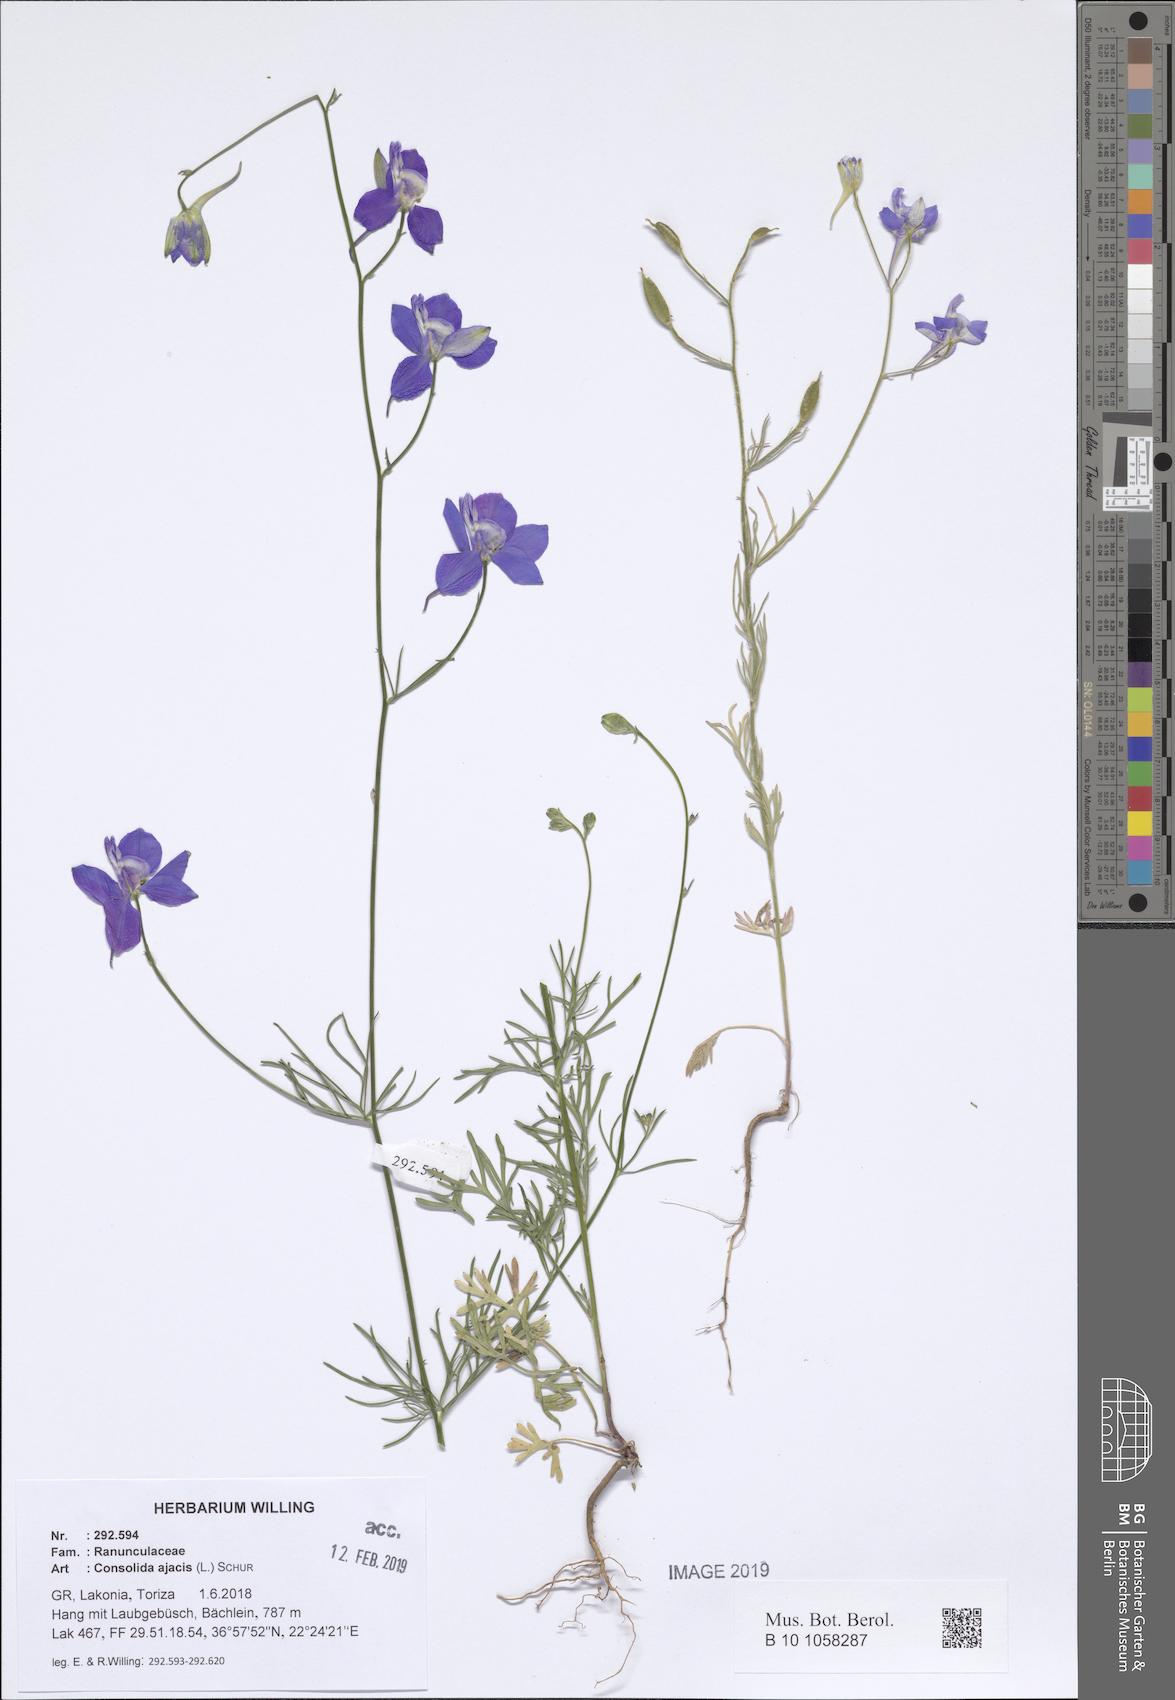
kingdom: Plantae
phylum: Tracheophyta
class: Magnoliopsida
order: Ranunculales
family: Ranunculaceae
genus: Delphinium
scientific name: Delphinium ajacis
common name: Doubtful knight's-spur
